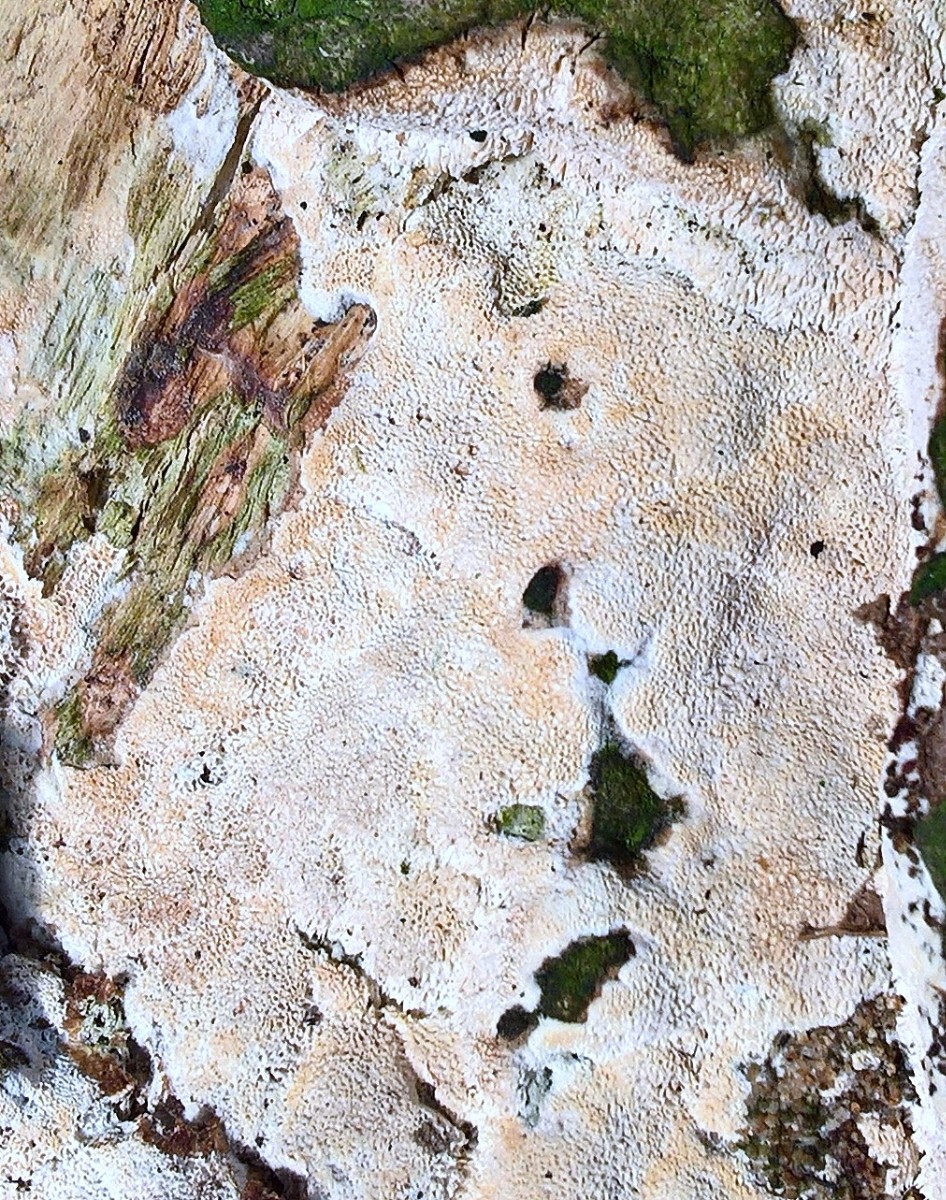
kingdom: Fungi
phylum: Basidiomycota
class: Agaricomycetes
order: Hymenochaetales
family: Schizoporaceae
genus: Xylodon
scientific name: Xylodon flaviporus
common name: gulporet tandsvamp
